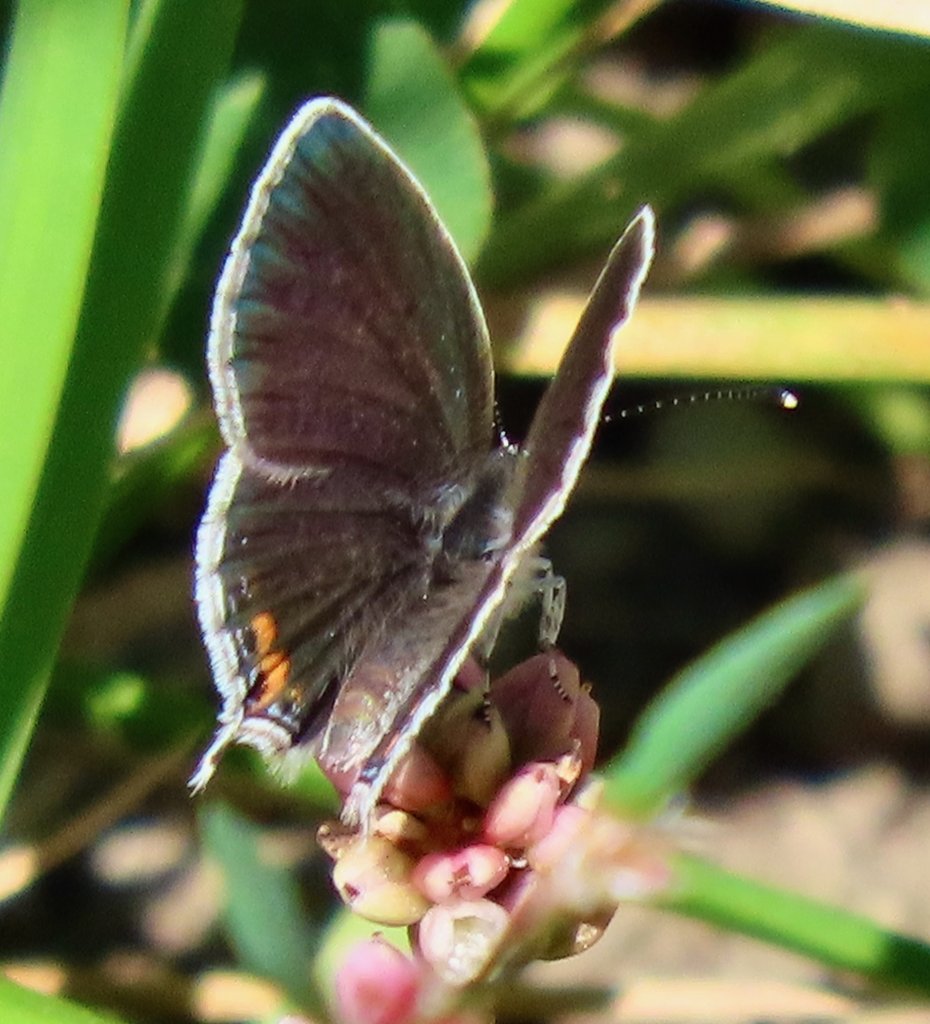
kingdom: Animalia
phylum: Arthropoda
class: Insecta
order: Lepidoptera
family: Lycaenidae
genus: Elkalyce
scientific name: Elkalyce comyntas
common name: Eastern Tailed-Blue
